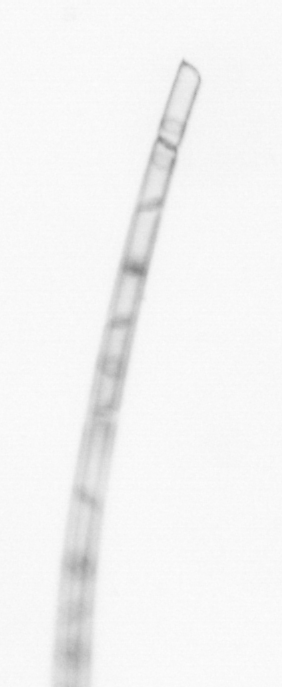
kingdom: Chromista
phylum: Ochrophyta
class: Bacillariophyceae
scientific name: Bacillariophyceae
